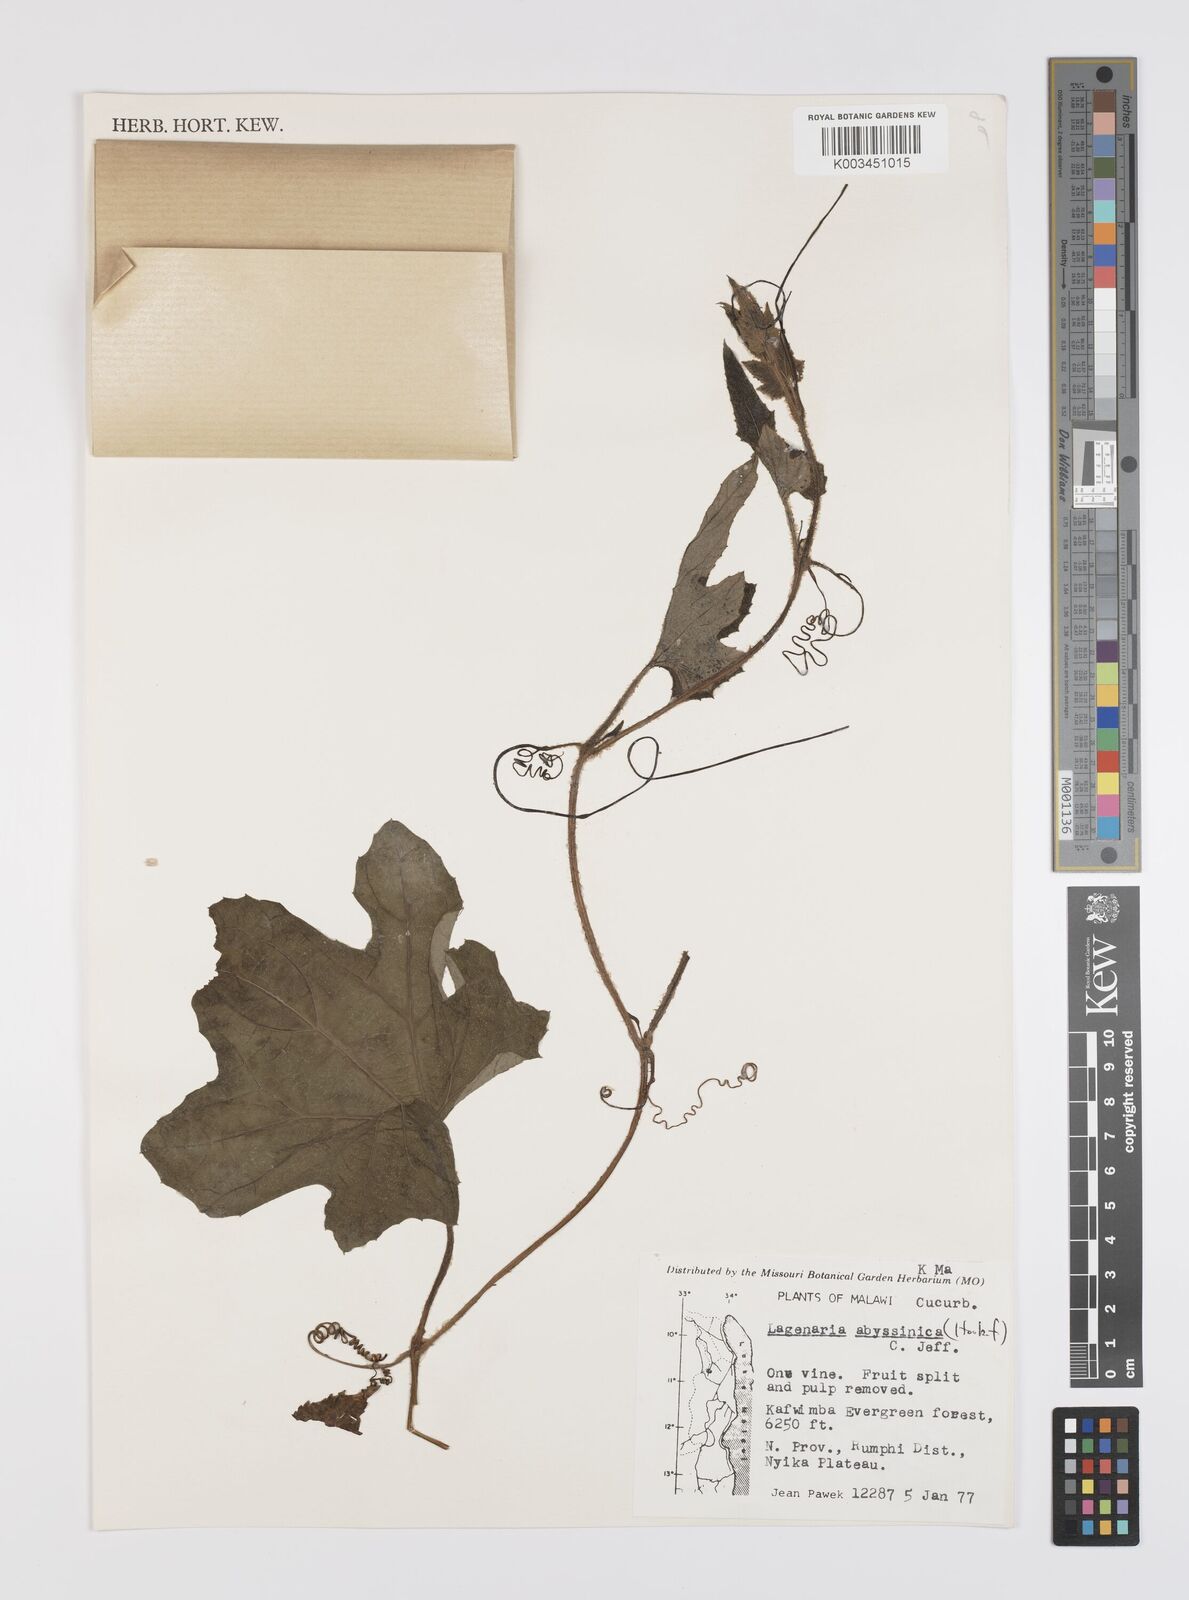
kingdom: Plantae
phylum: Tracheophyta
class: Magnoliopsida
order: Cucurbitales
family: Cucurbitaceae
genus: Lagenaria
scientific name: Lagenaria abyssinica
